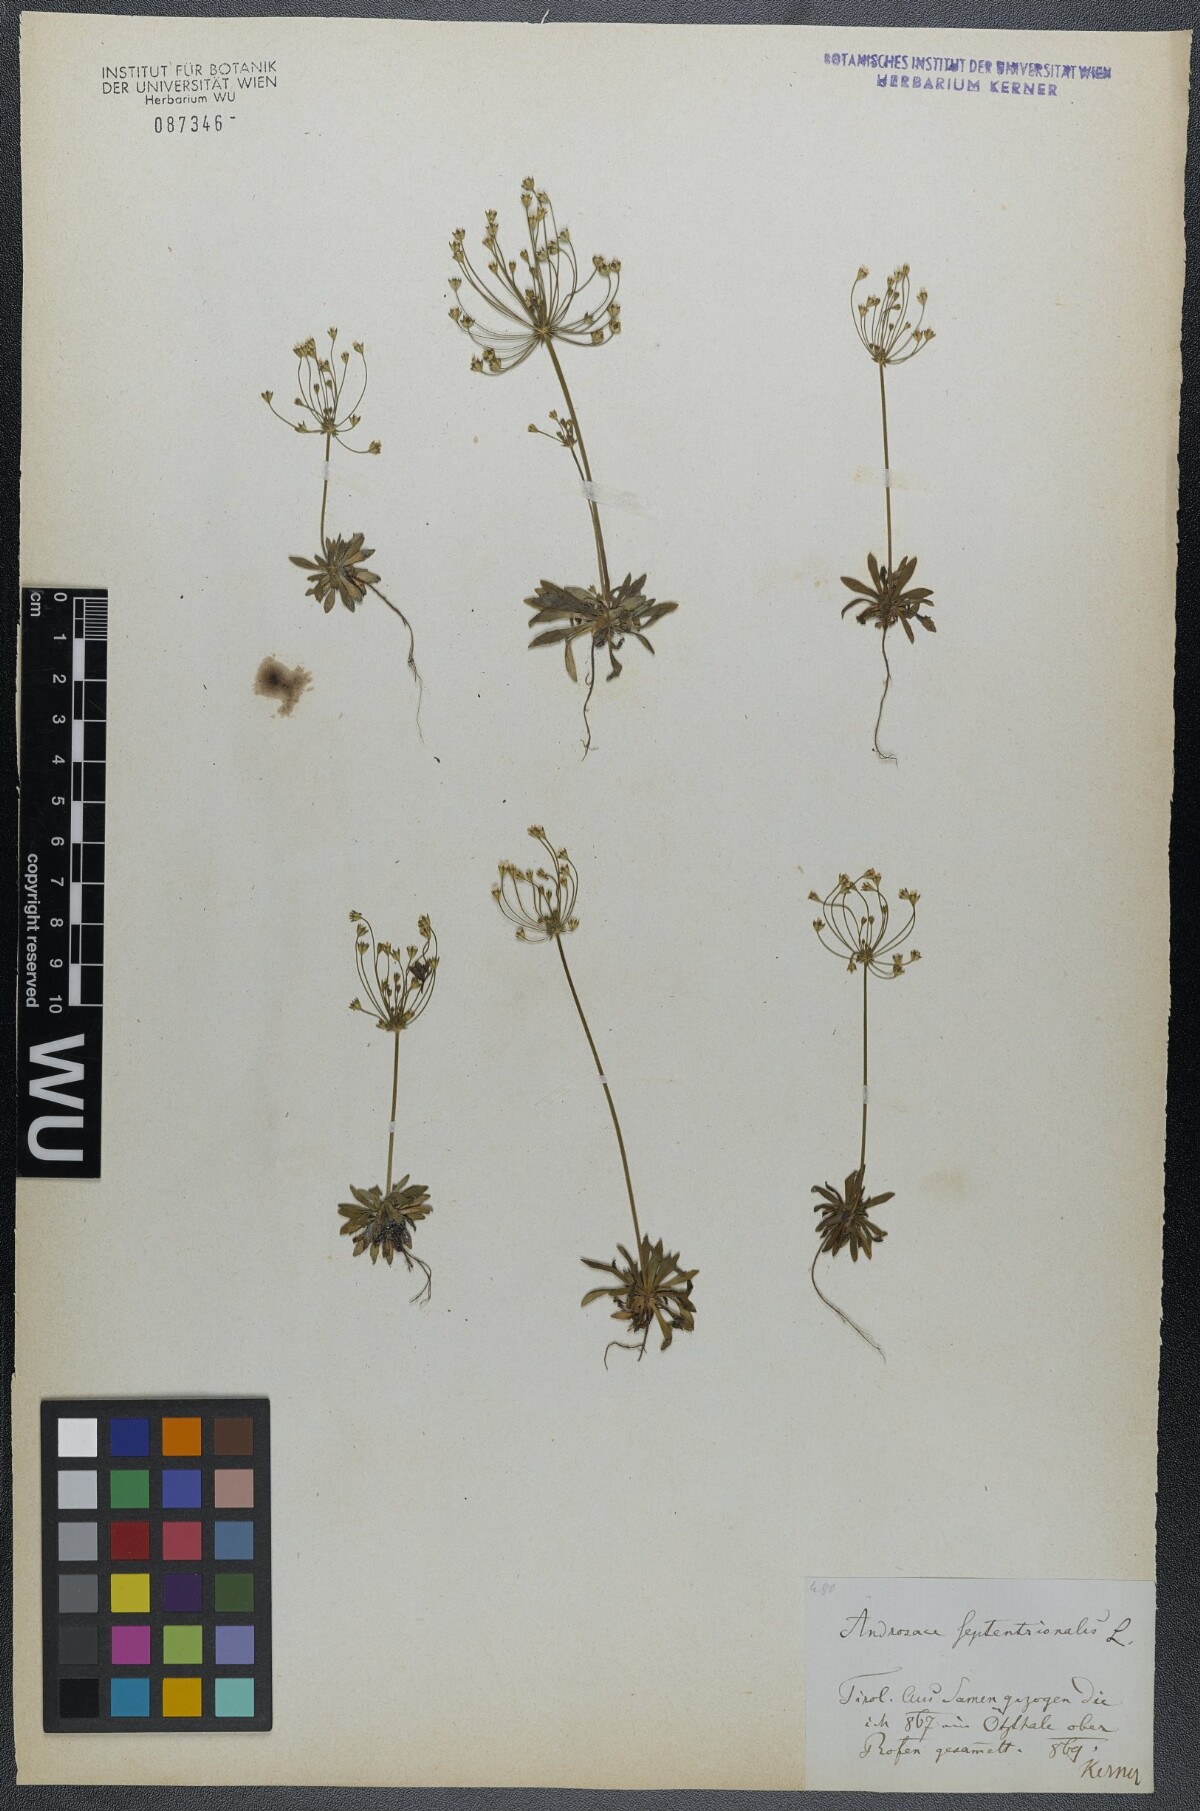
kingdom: Plantae
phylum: Tracheophyta
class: Magnoliopsida
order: Ericales
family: Primulaceae
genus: Androsace
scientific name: Androsace septentrionalis
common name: Hairy northern fairy-candelabra
